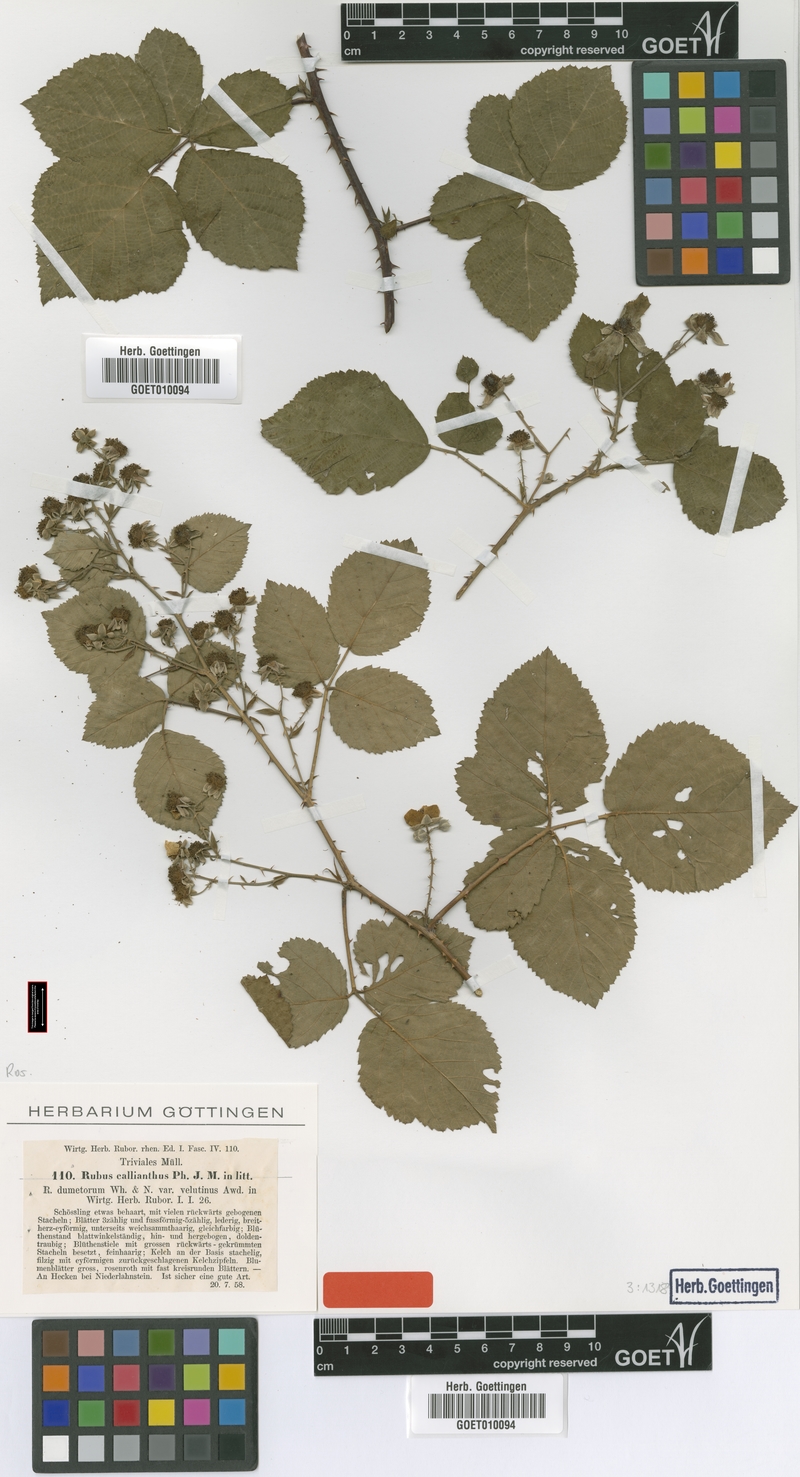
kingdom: Plantae
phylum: Tracheophyta
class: Magnoliopsida
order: Rosales
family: Rosaceae
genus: Rubus
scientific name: Rubus nemorosus
